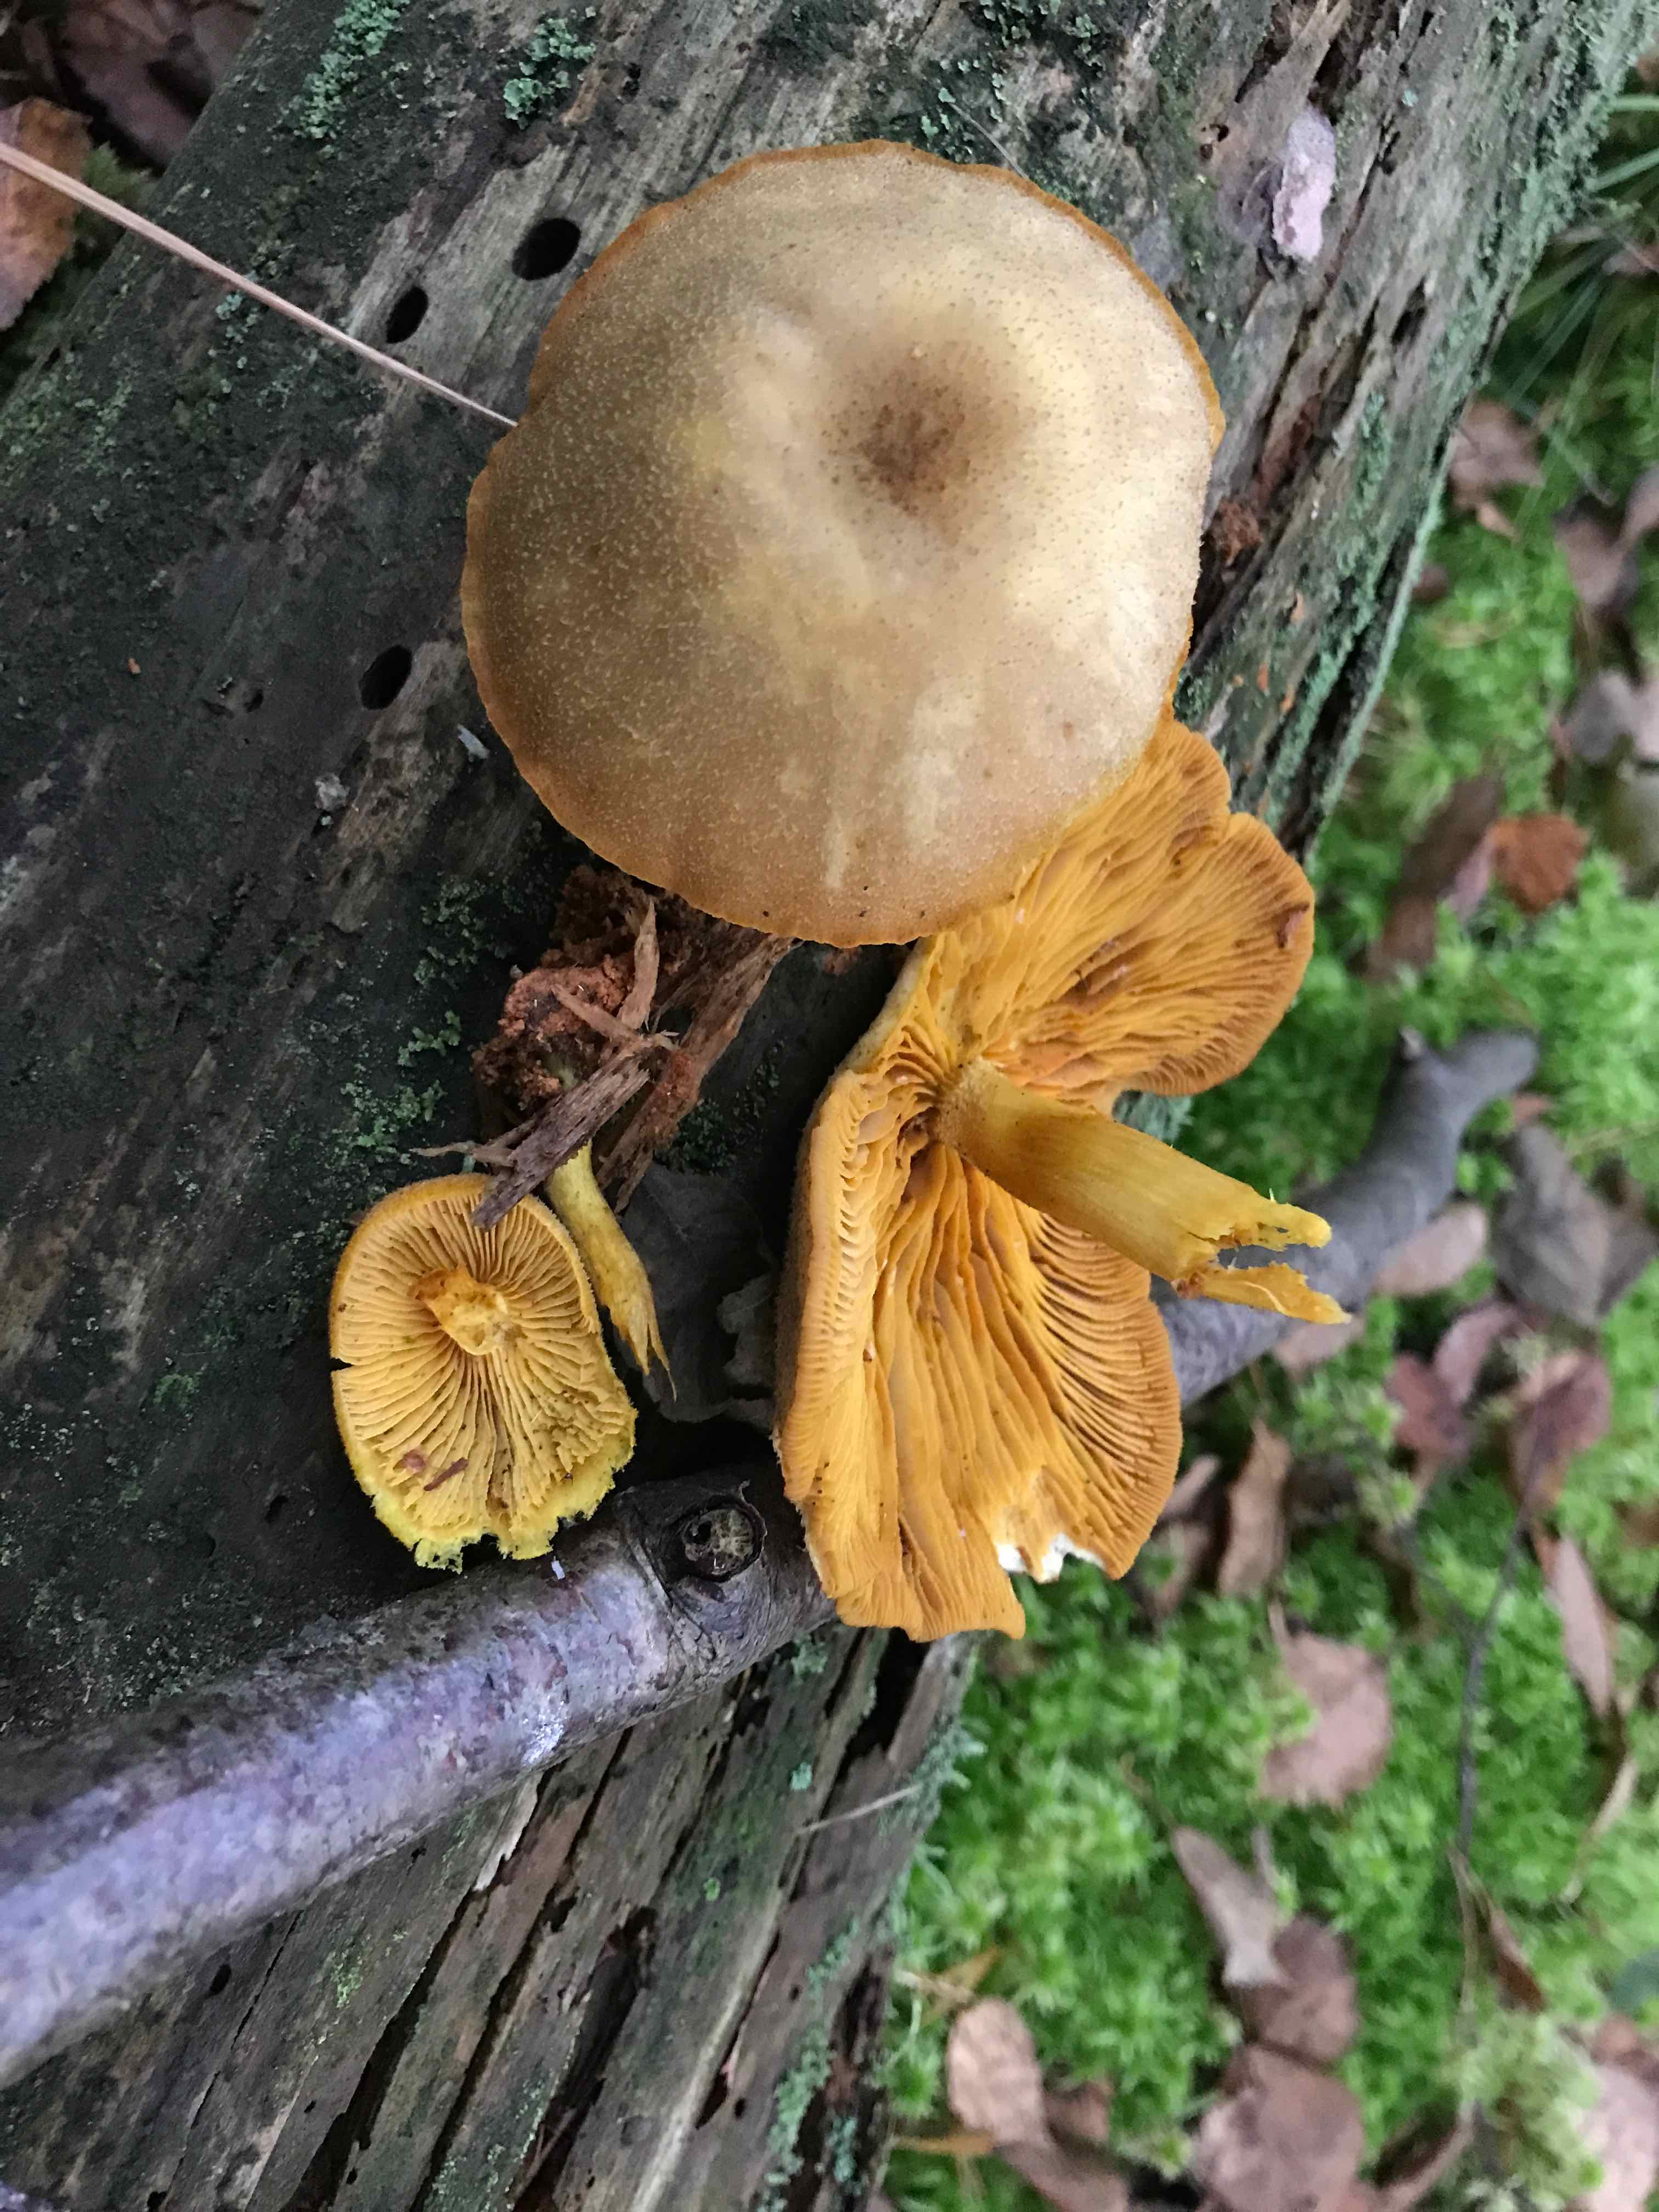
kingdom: Fungi
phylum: Basidiomycota
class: Agaricomycetes
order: Agaricales
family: Tricholomataceae
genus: Tricholomopsis
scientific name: Tricholomopsis decora
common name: sortskællet væbnerhat
